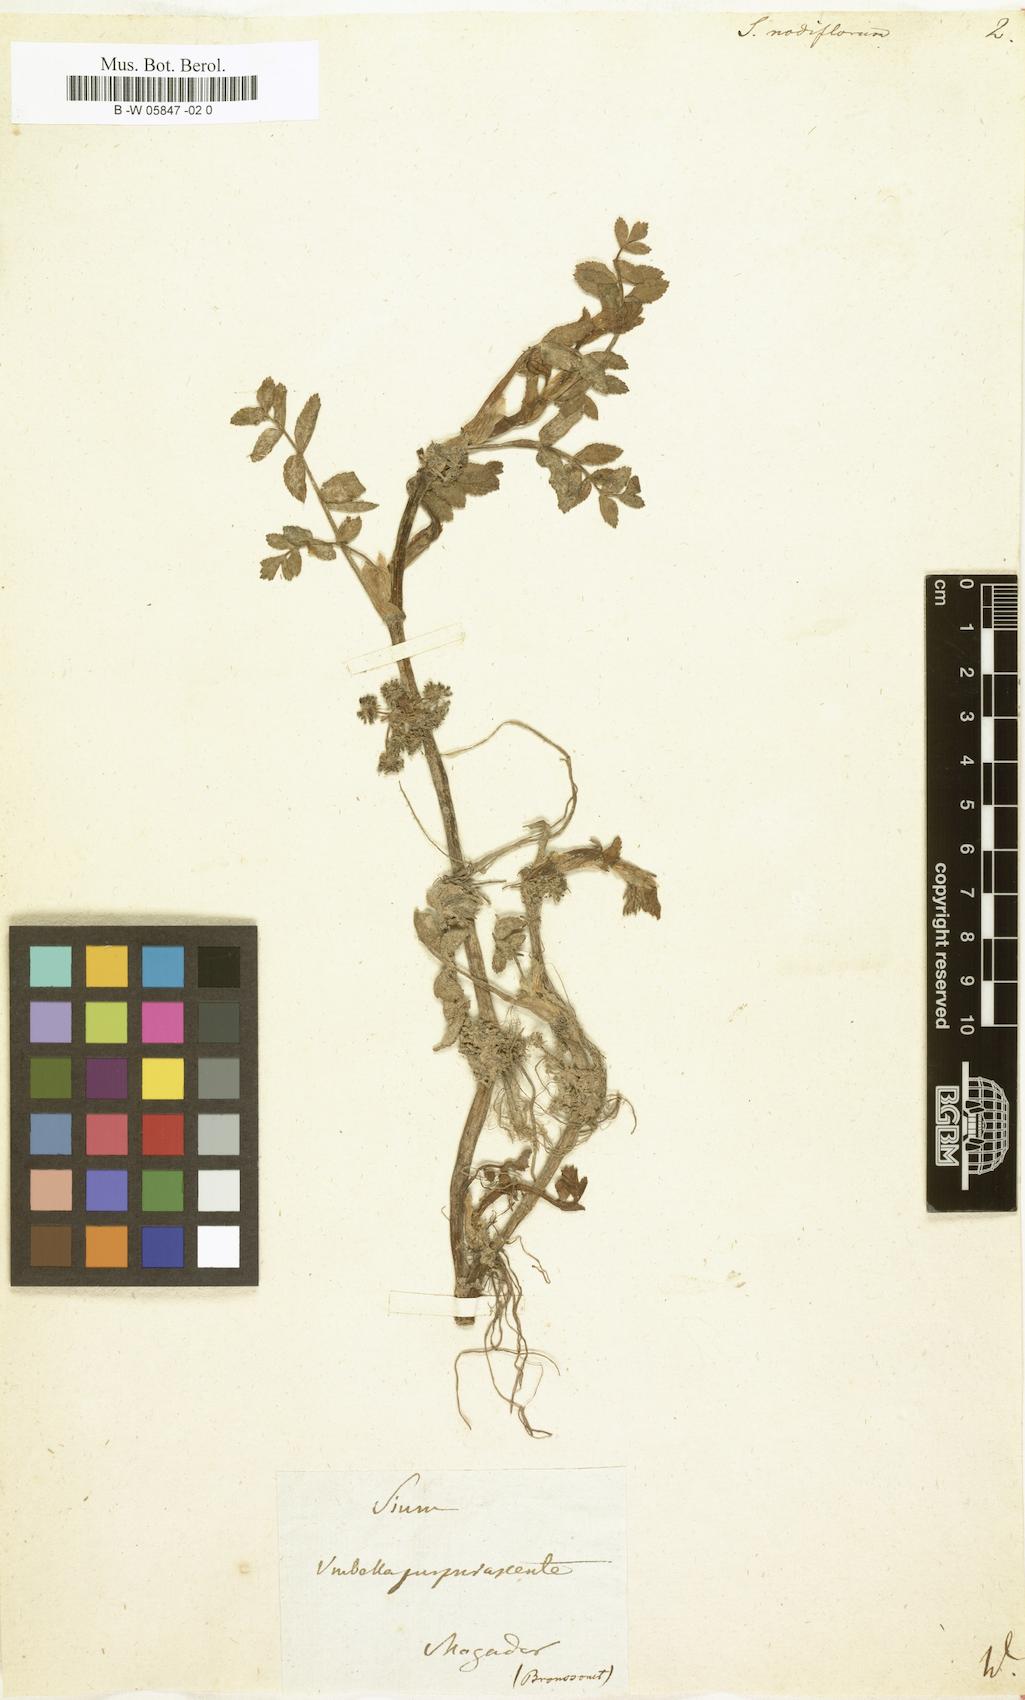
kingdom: Plantae
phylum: Tracheophyta
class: Magnoliopsida
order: Apiales
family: Apiaceae
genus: Helosciadium
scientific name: Helosciadium nodiflorum
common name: Fool's-watercress
